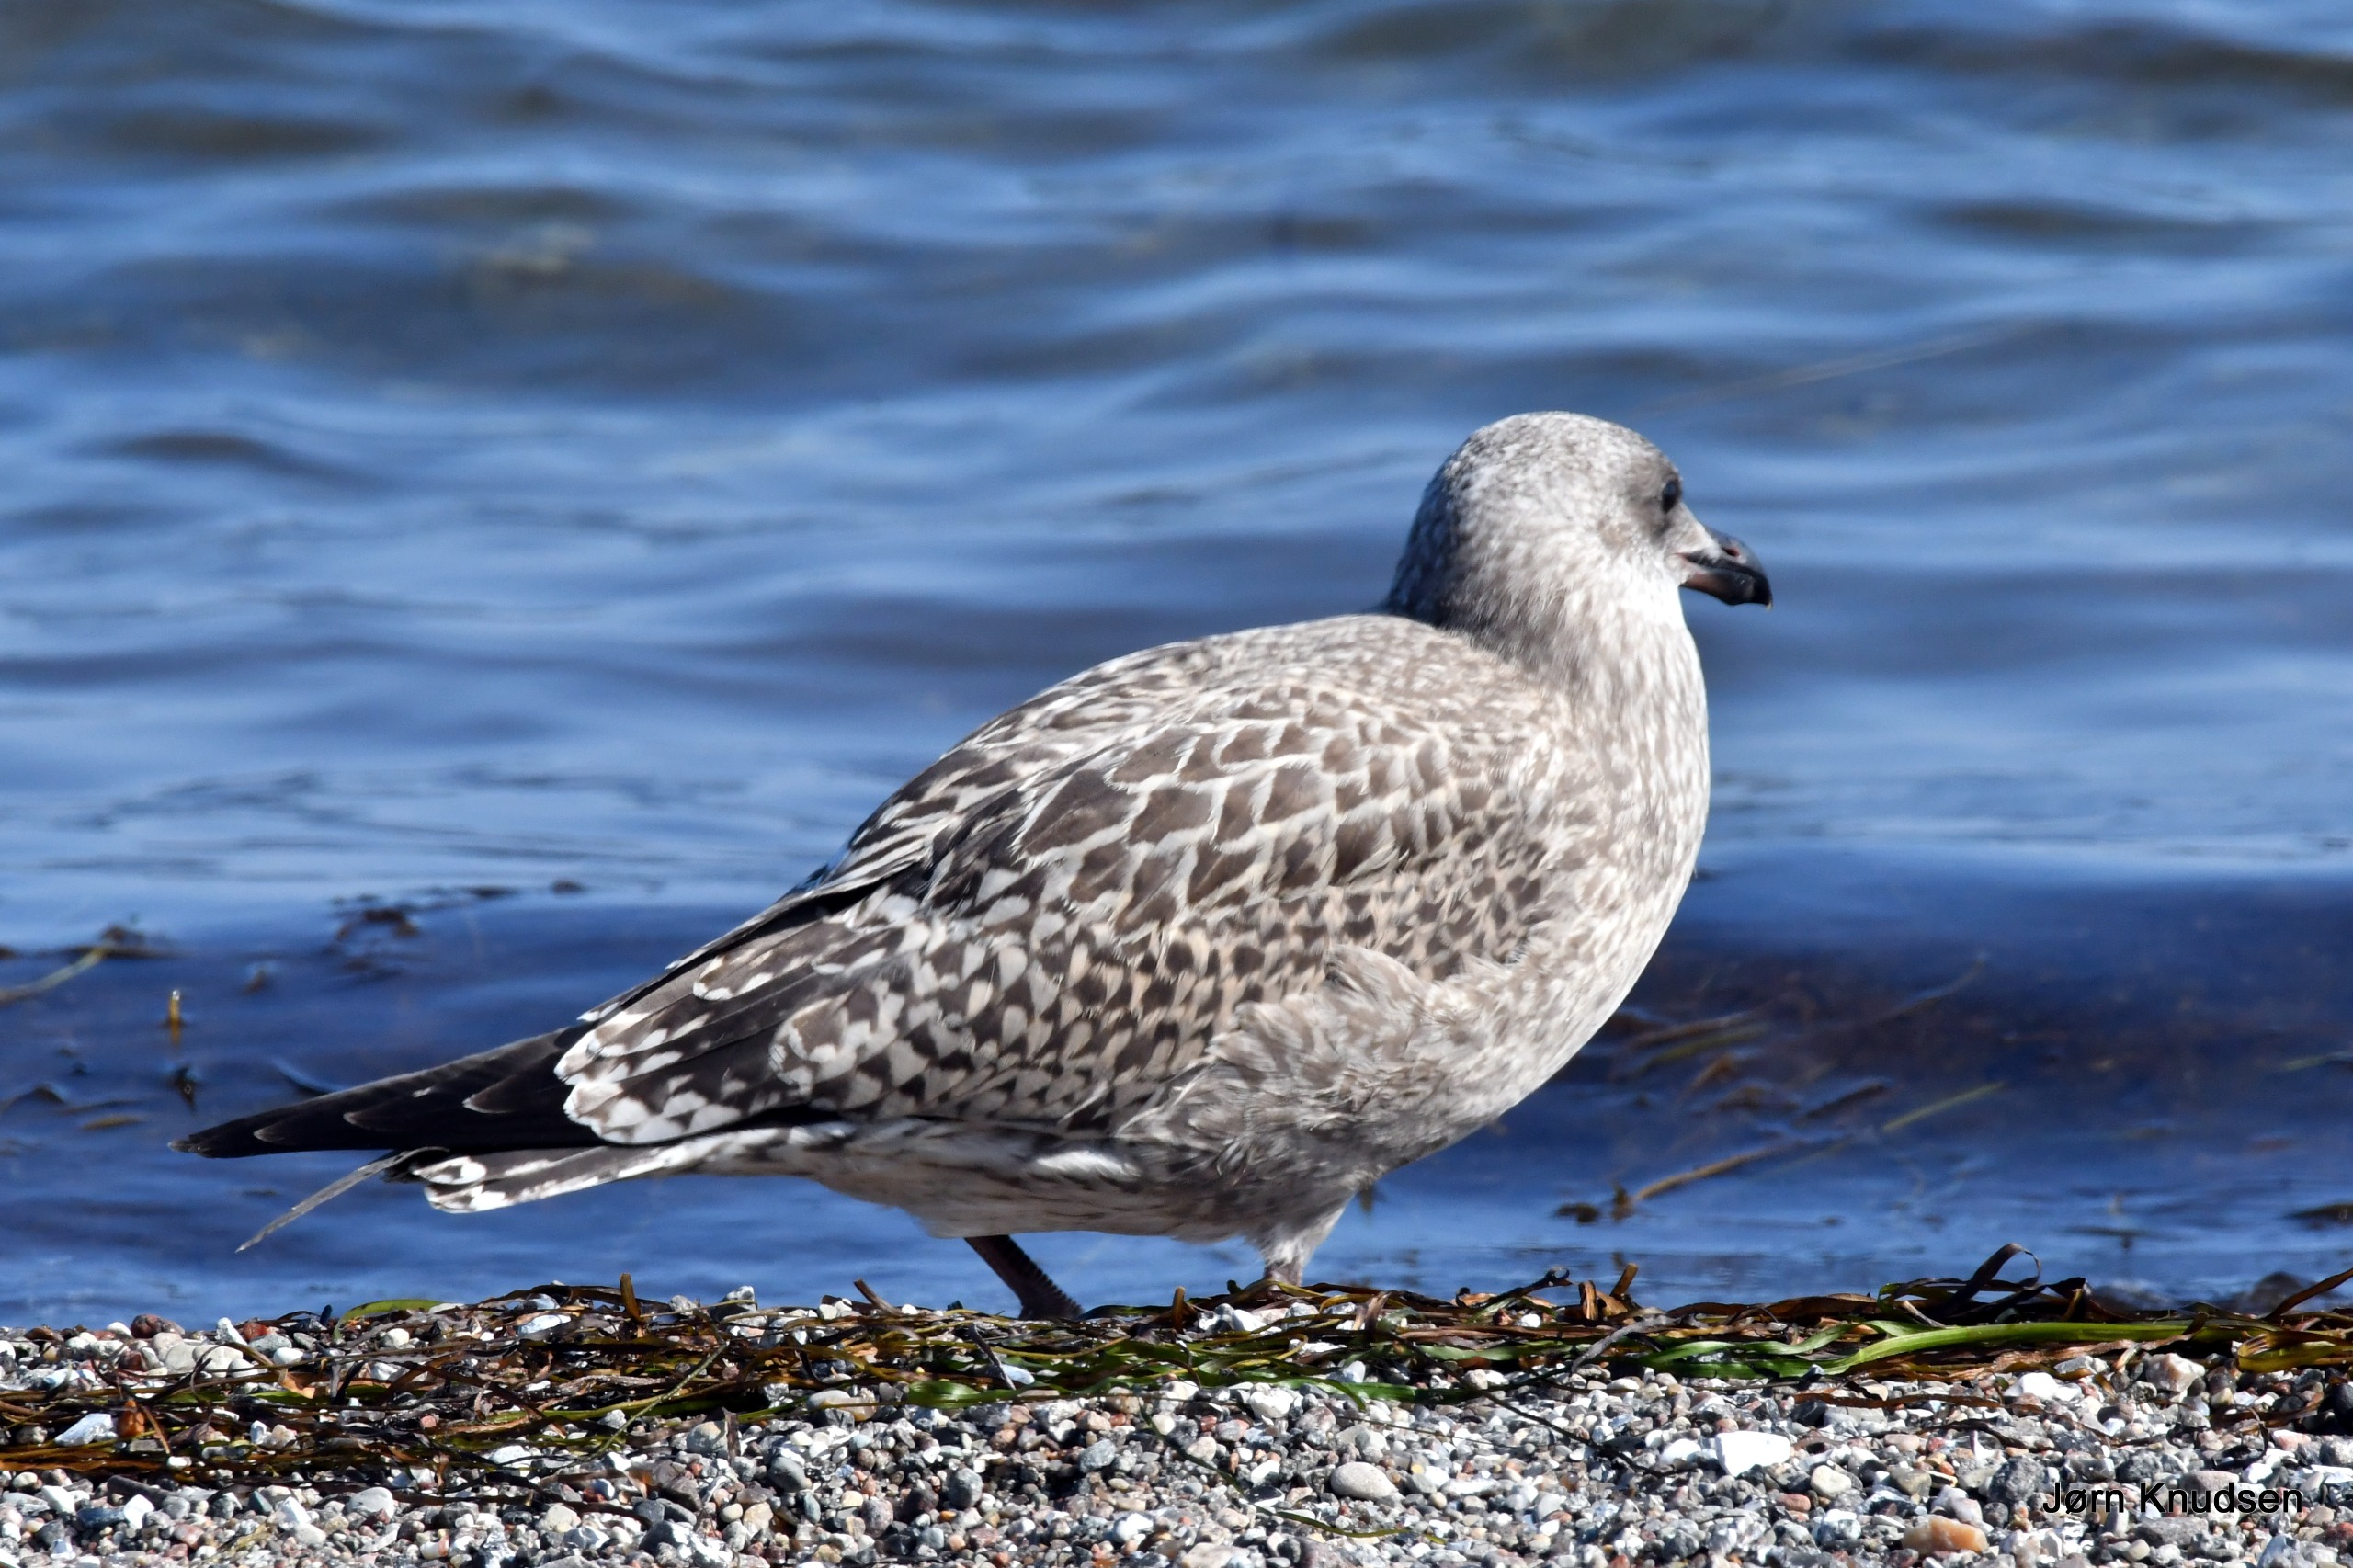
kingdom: Animalia
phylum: Chordata
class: Aves
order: Charadriiformes
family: Laridae
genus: Larus
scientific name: Larus argentatus
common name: Sølvmåge
